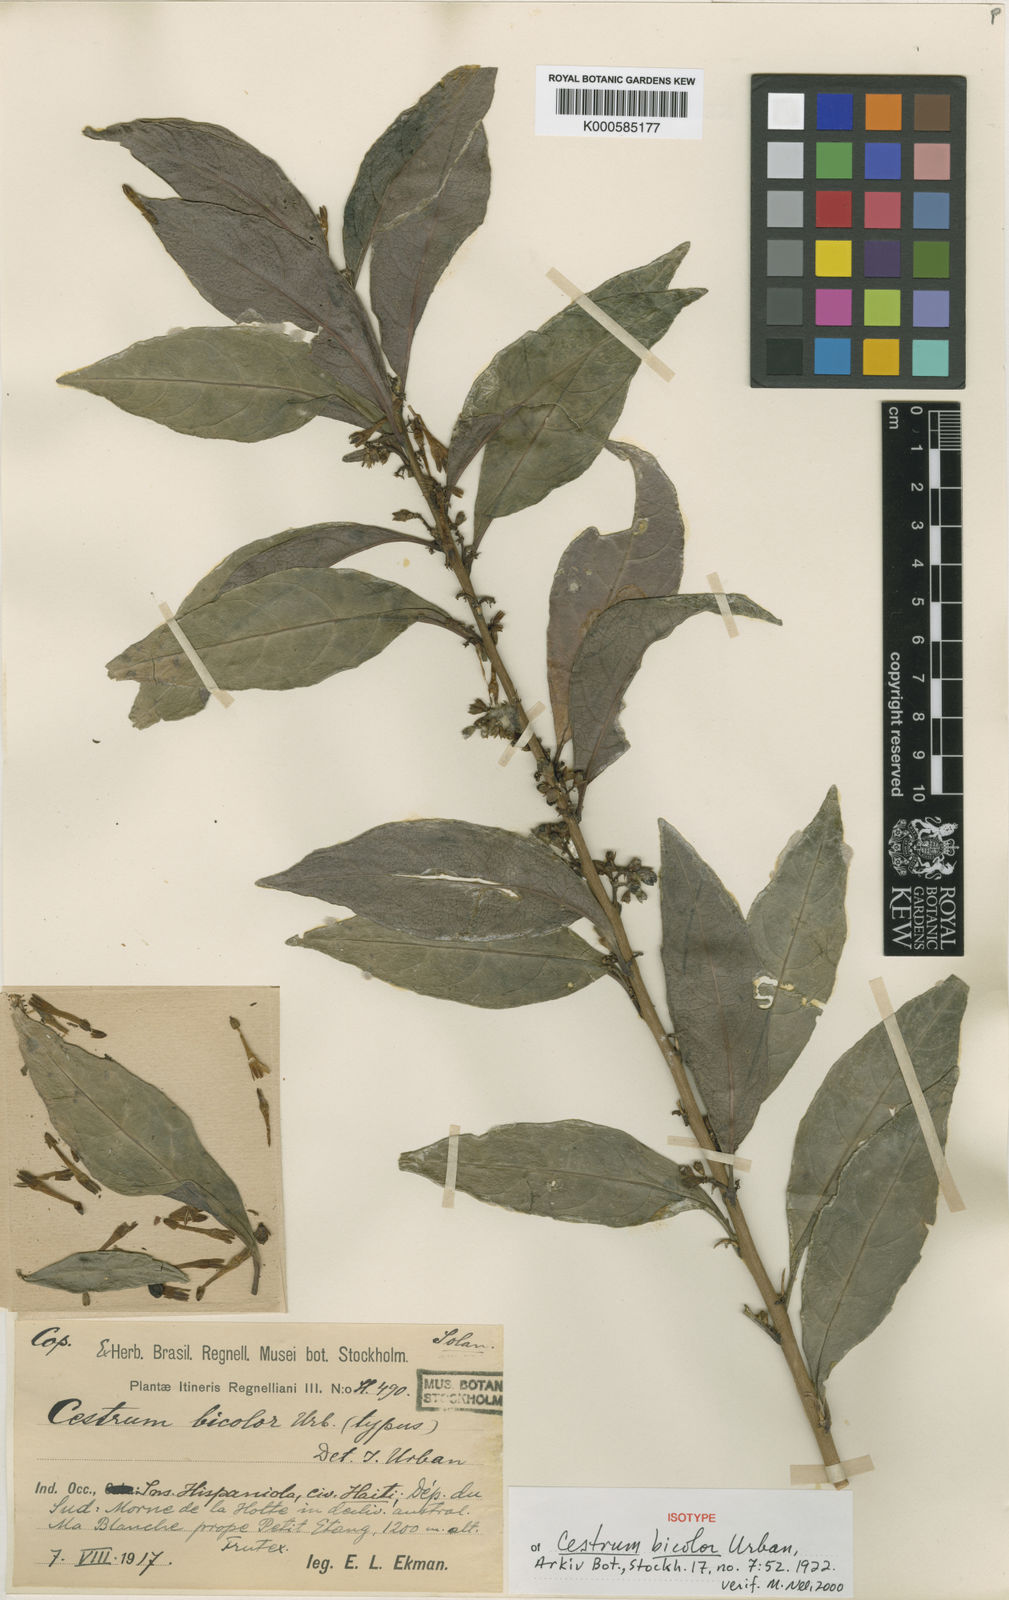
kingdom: Plantae
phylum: Tracheophyta
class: Magnoliopsida
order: Solanales
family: Solanaceae
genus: Cestrum
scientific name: Cestrum bicolor
